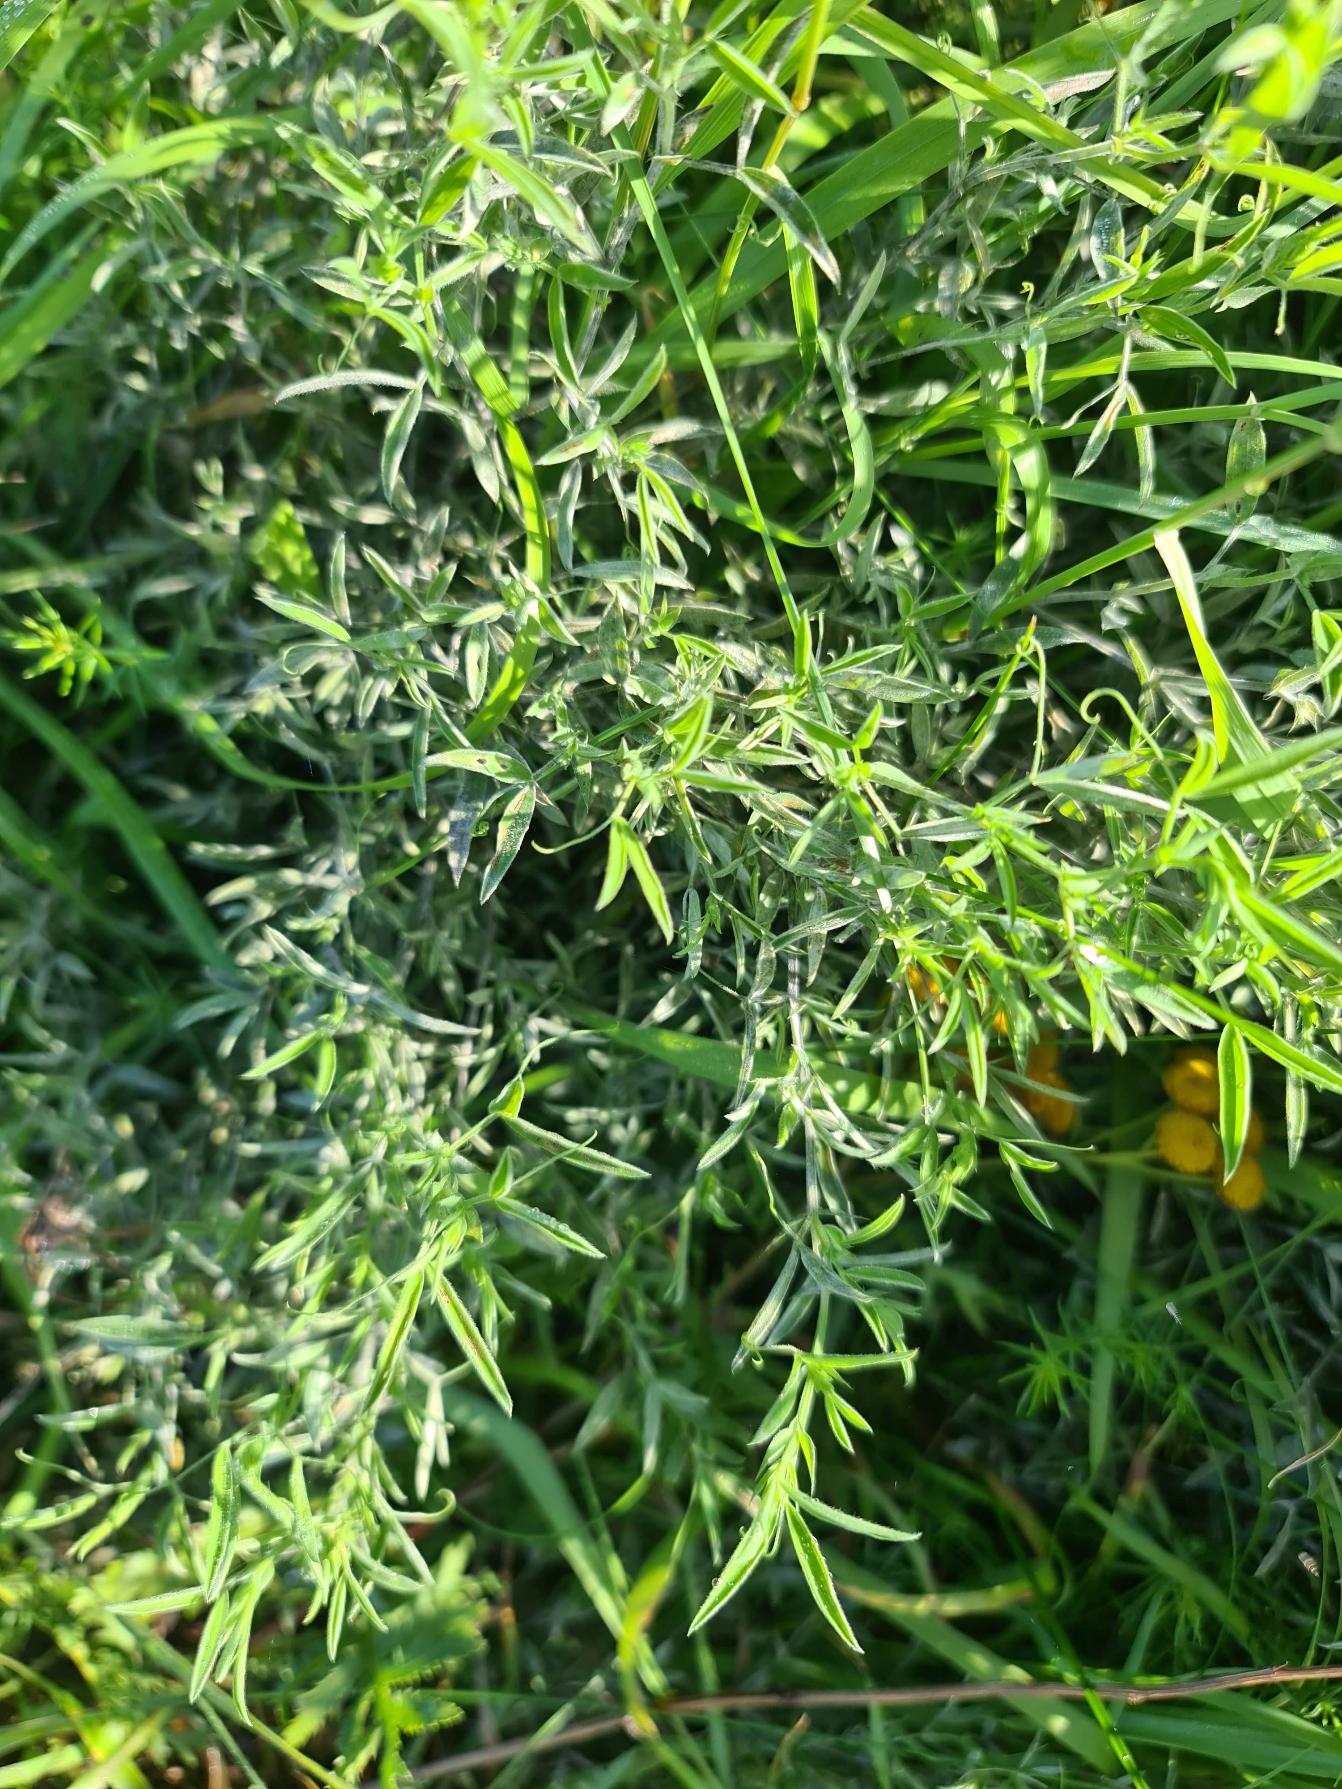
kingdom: Plantae
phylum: Tracheophyta
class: Magnoliopsida
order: Fabales
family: Fabaceae
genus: Lathyrus
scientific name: Lathyrus pratensis
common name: Gul fladbælg
